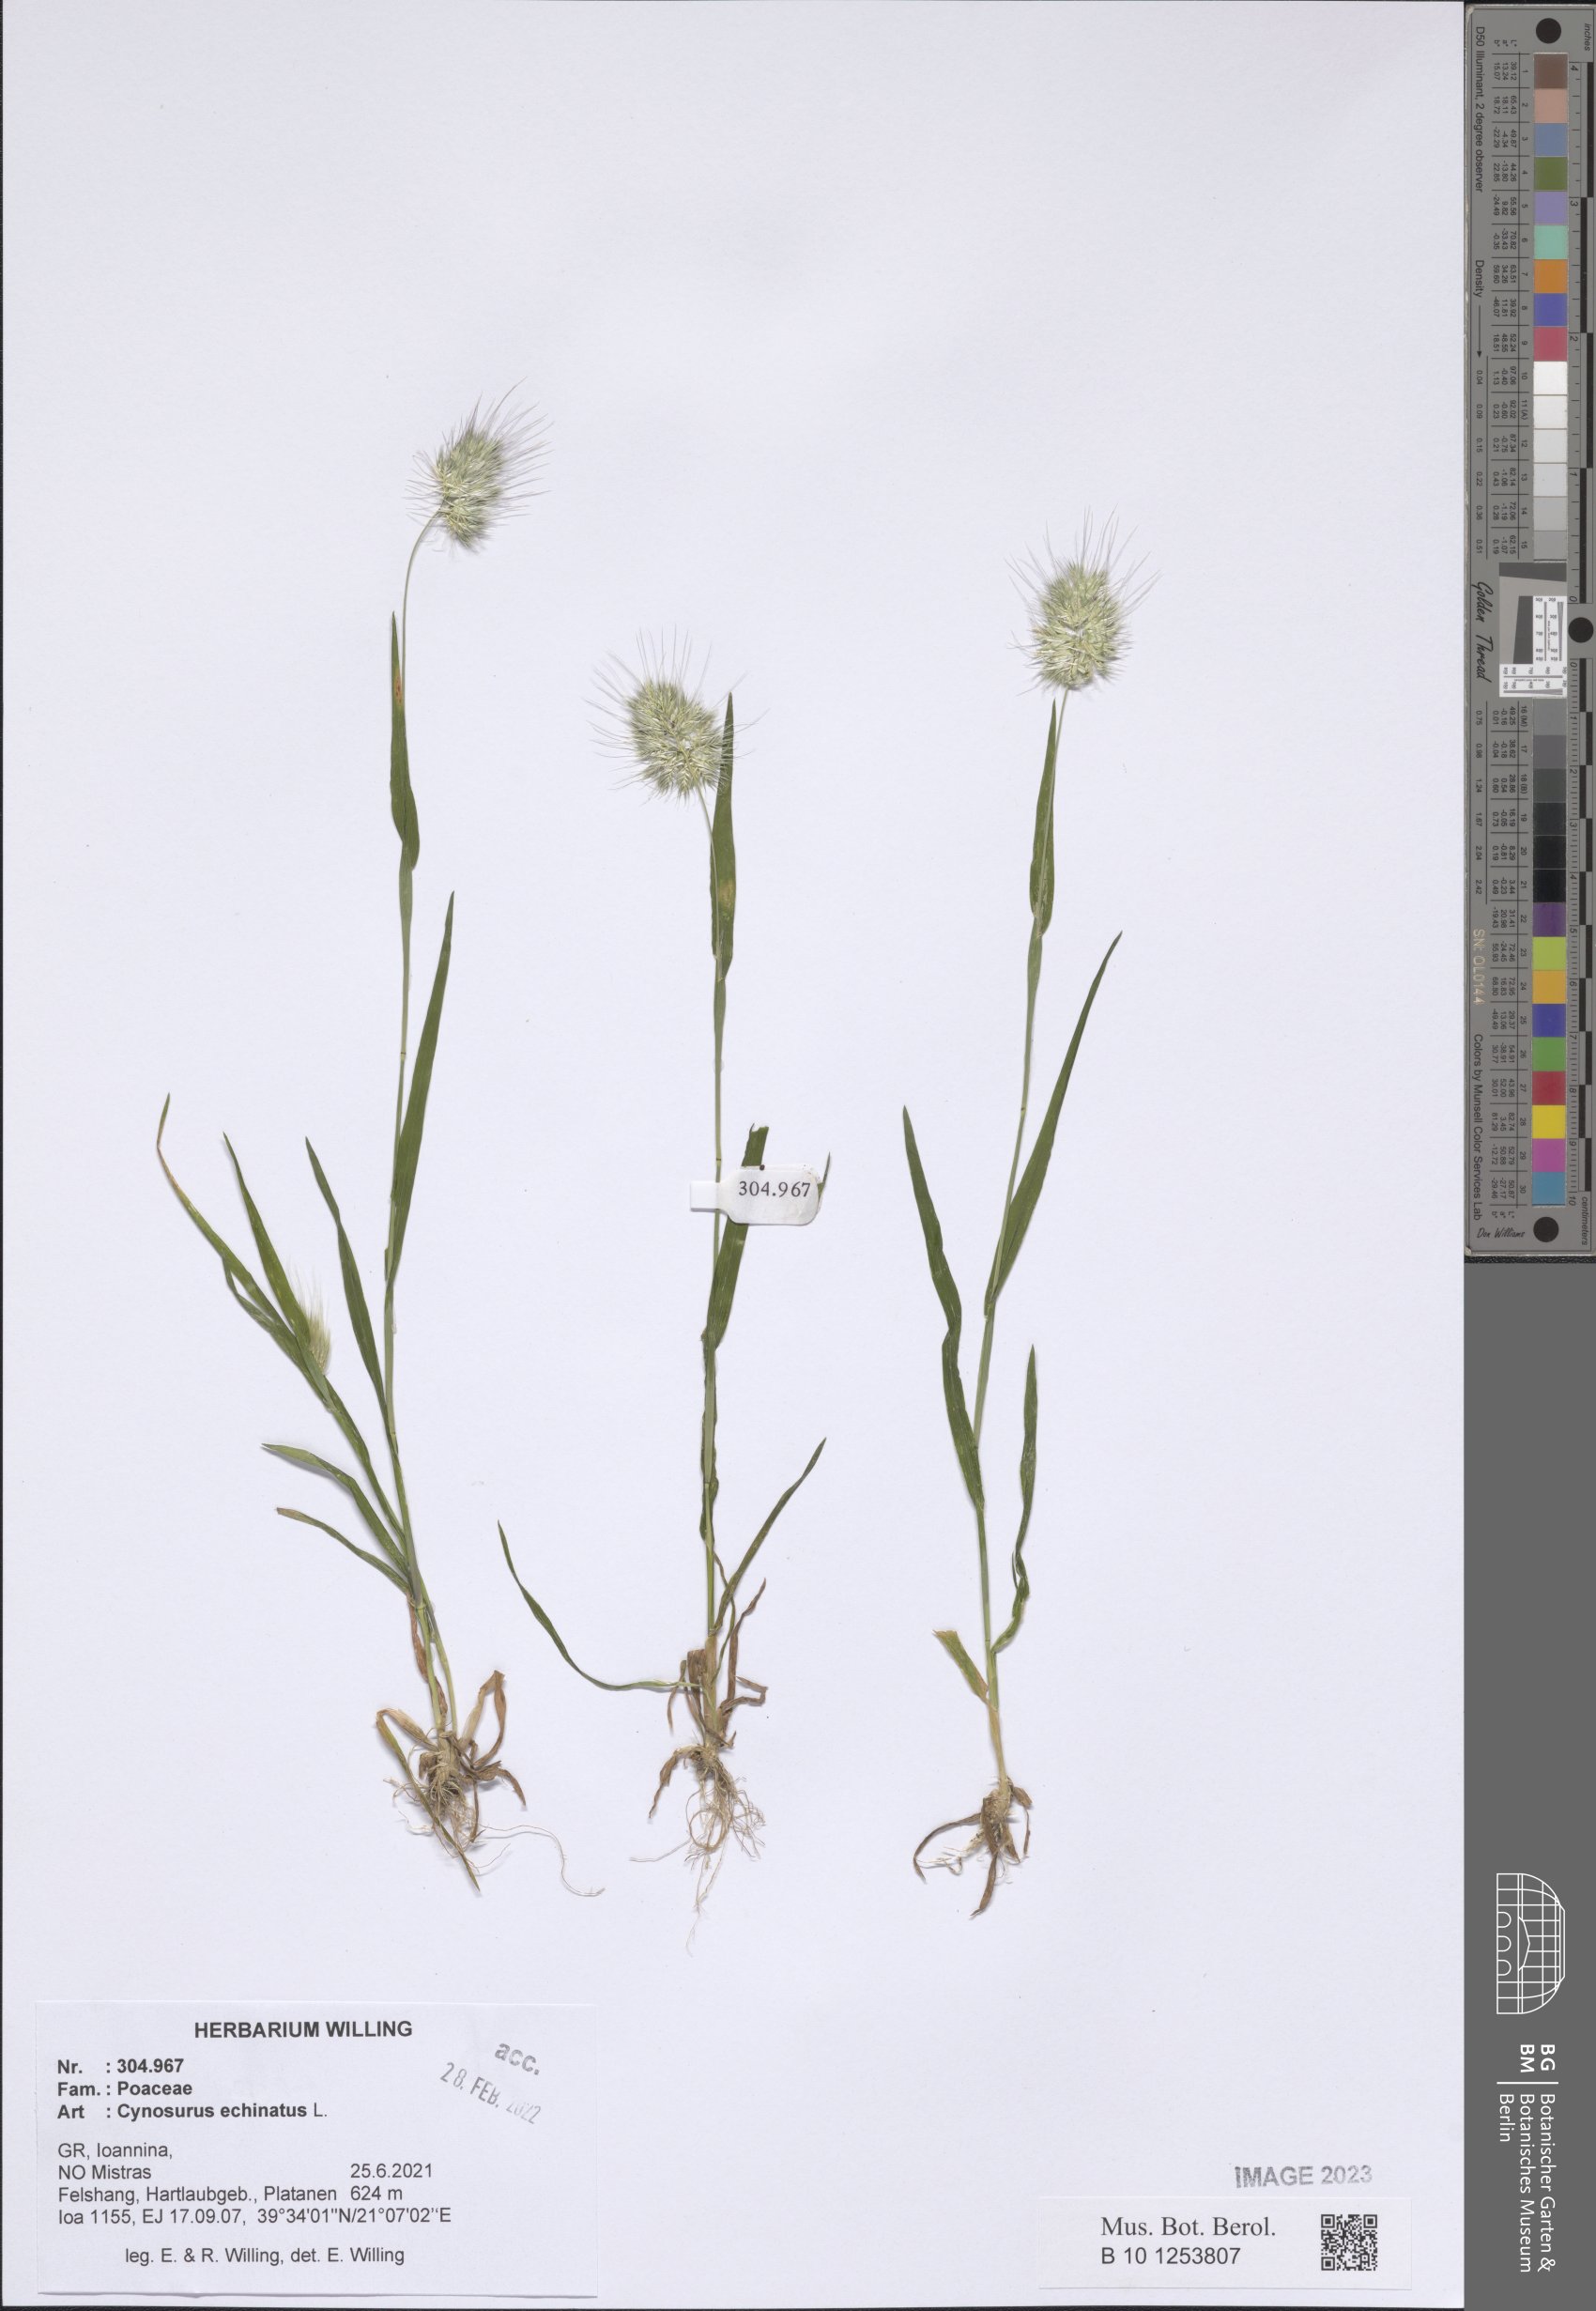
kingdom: Plantae
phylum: Tracheophyta
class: Liliopsida
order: Poales
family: Poaceae
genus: Cynosurus
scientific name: Cynosurus echinatus
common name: Rough dog's-tail
